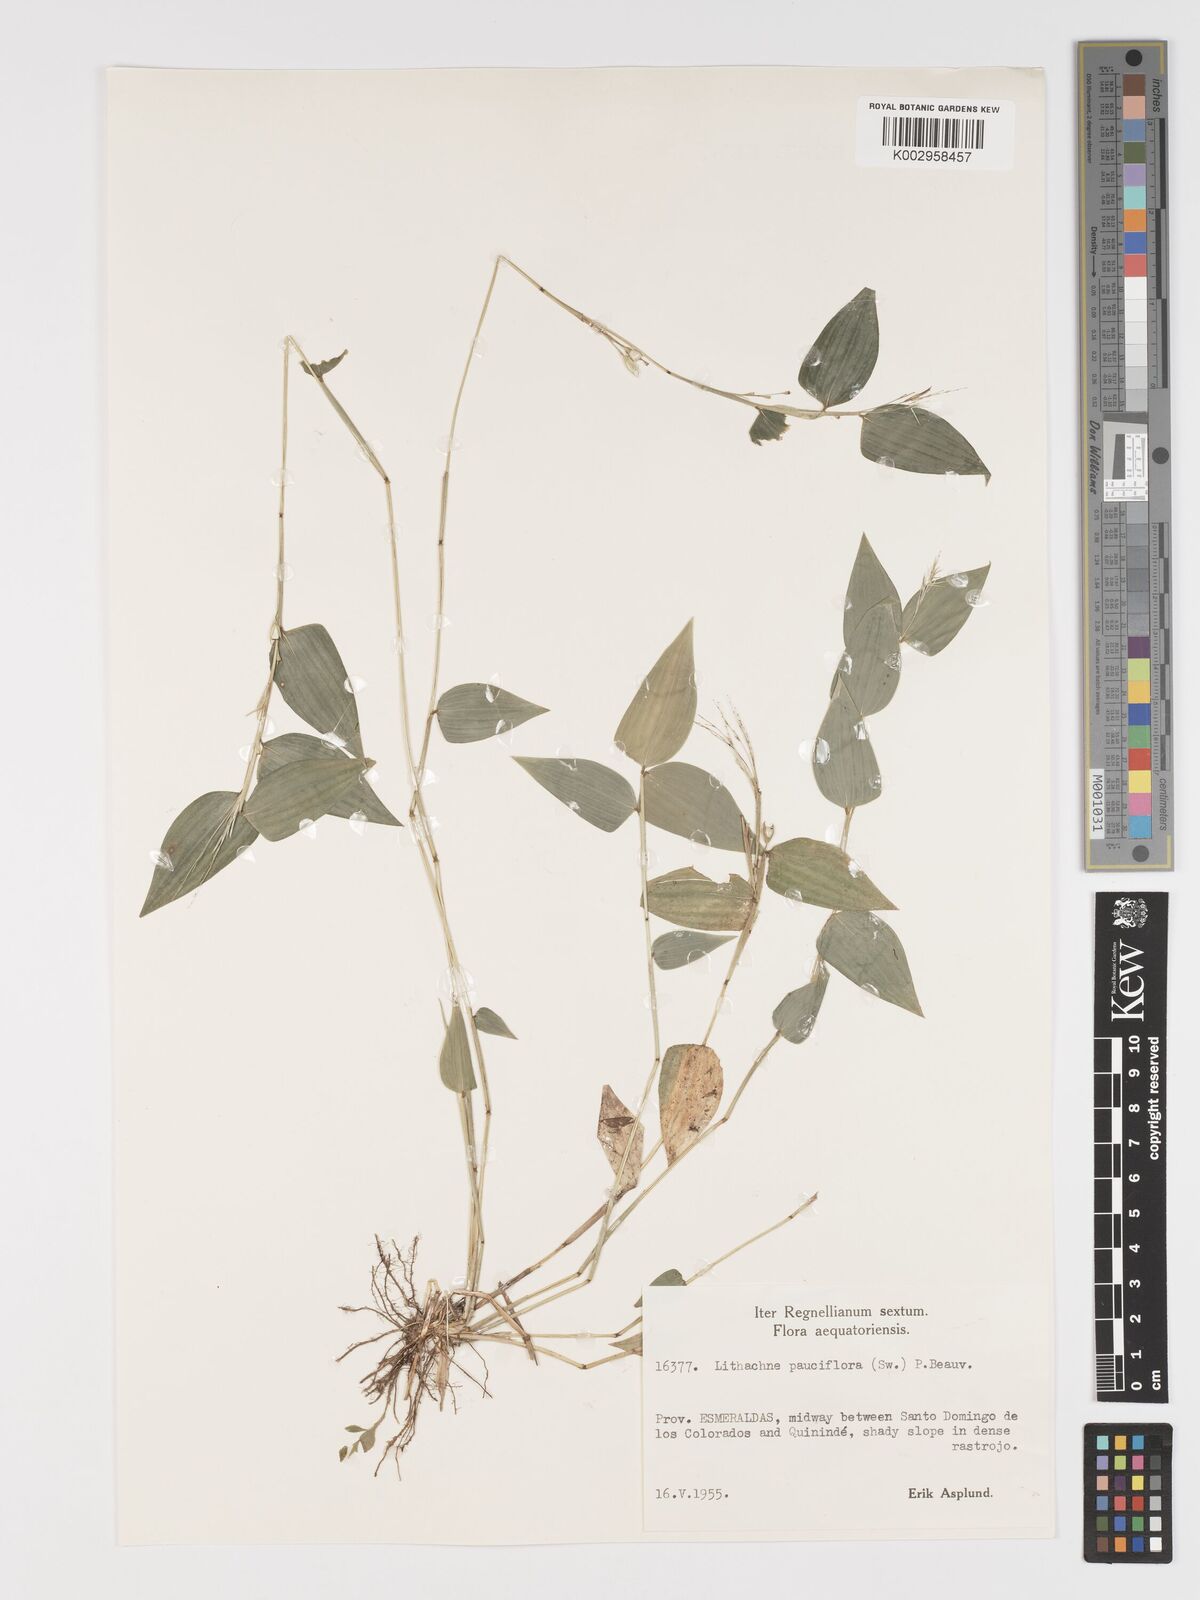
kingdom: Plantae
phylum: Tracheophyta
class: Liliopsida
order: Poales
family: Poaceae
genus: Lithachne
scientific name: Lithachne pauciflora
